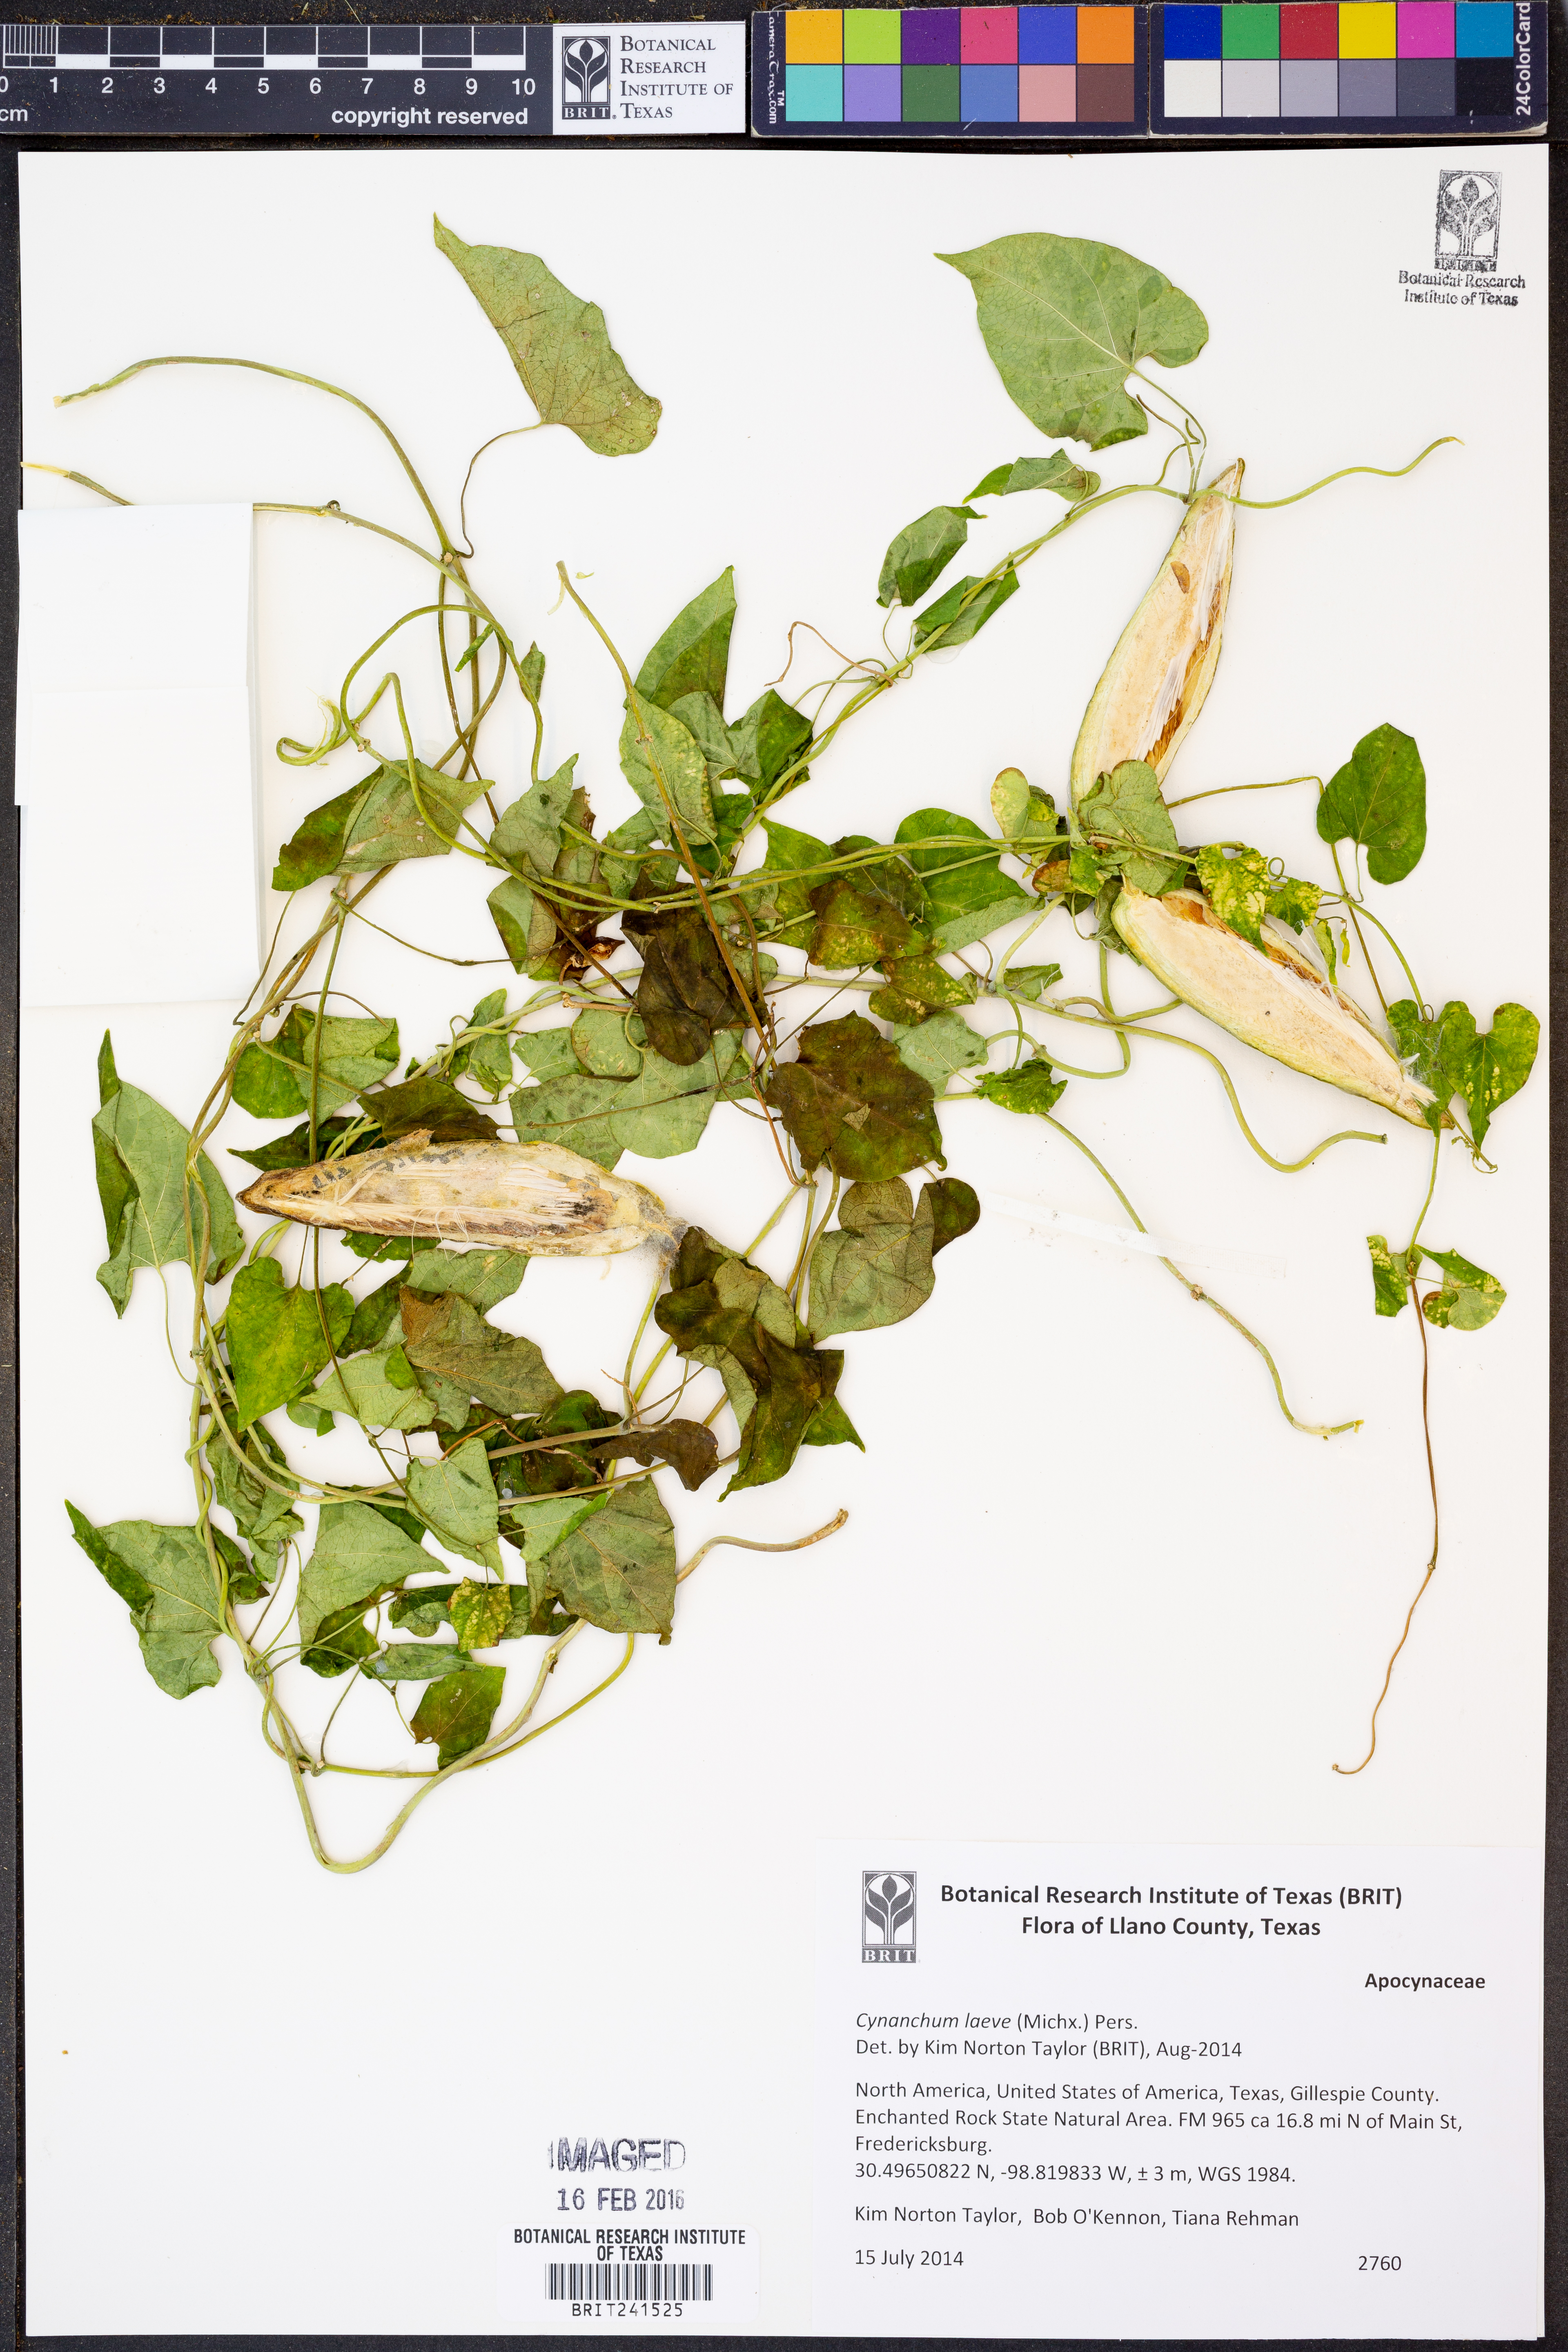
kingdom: Plantae
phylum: Tracheophyta
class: Magnoliopsida
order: Gentianales
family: Apocynaceae
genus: Cynanchum
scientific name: Cynanchum laeve
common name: Sandvine
